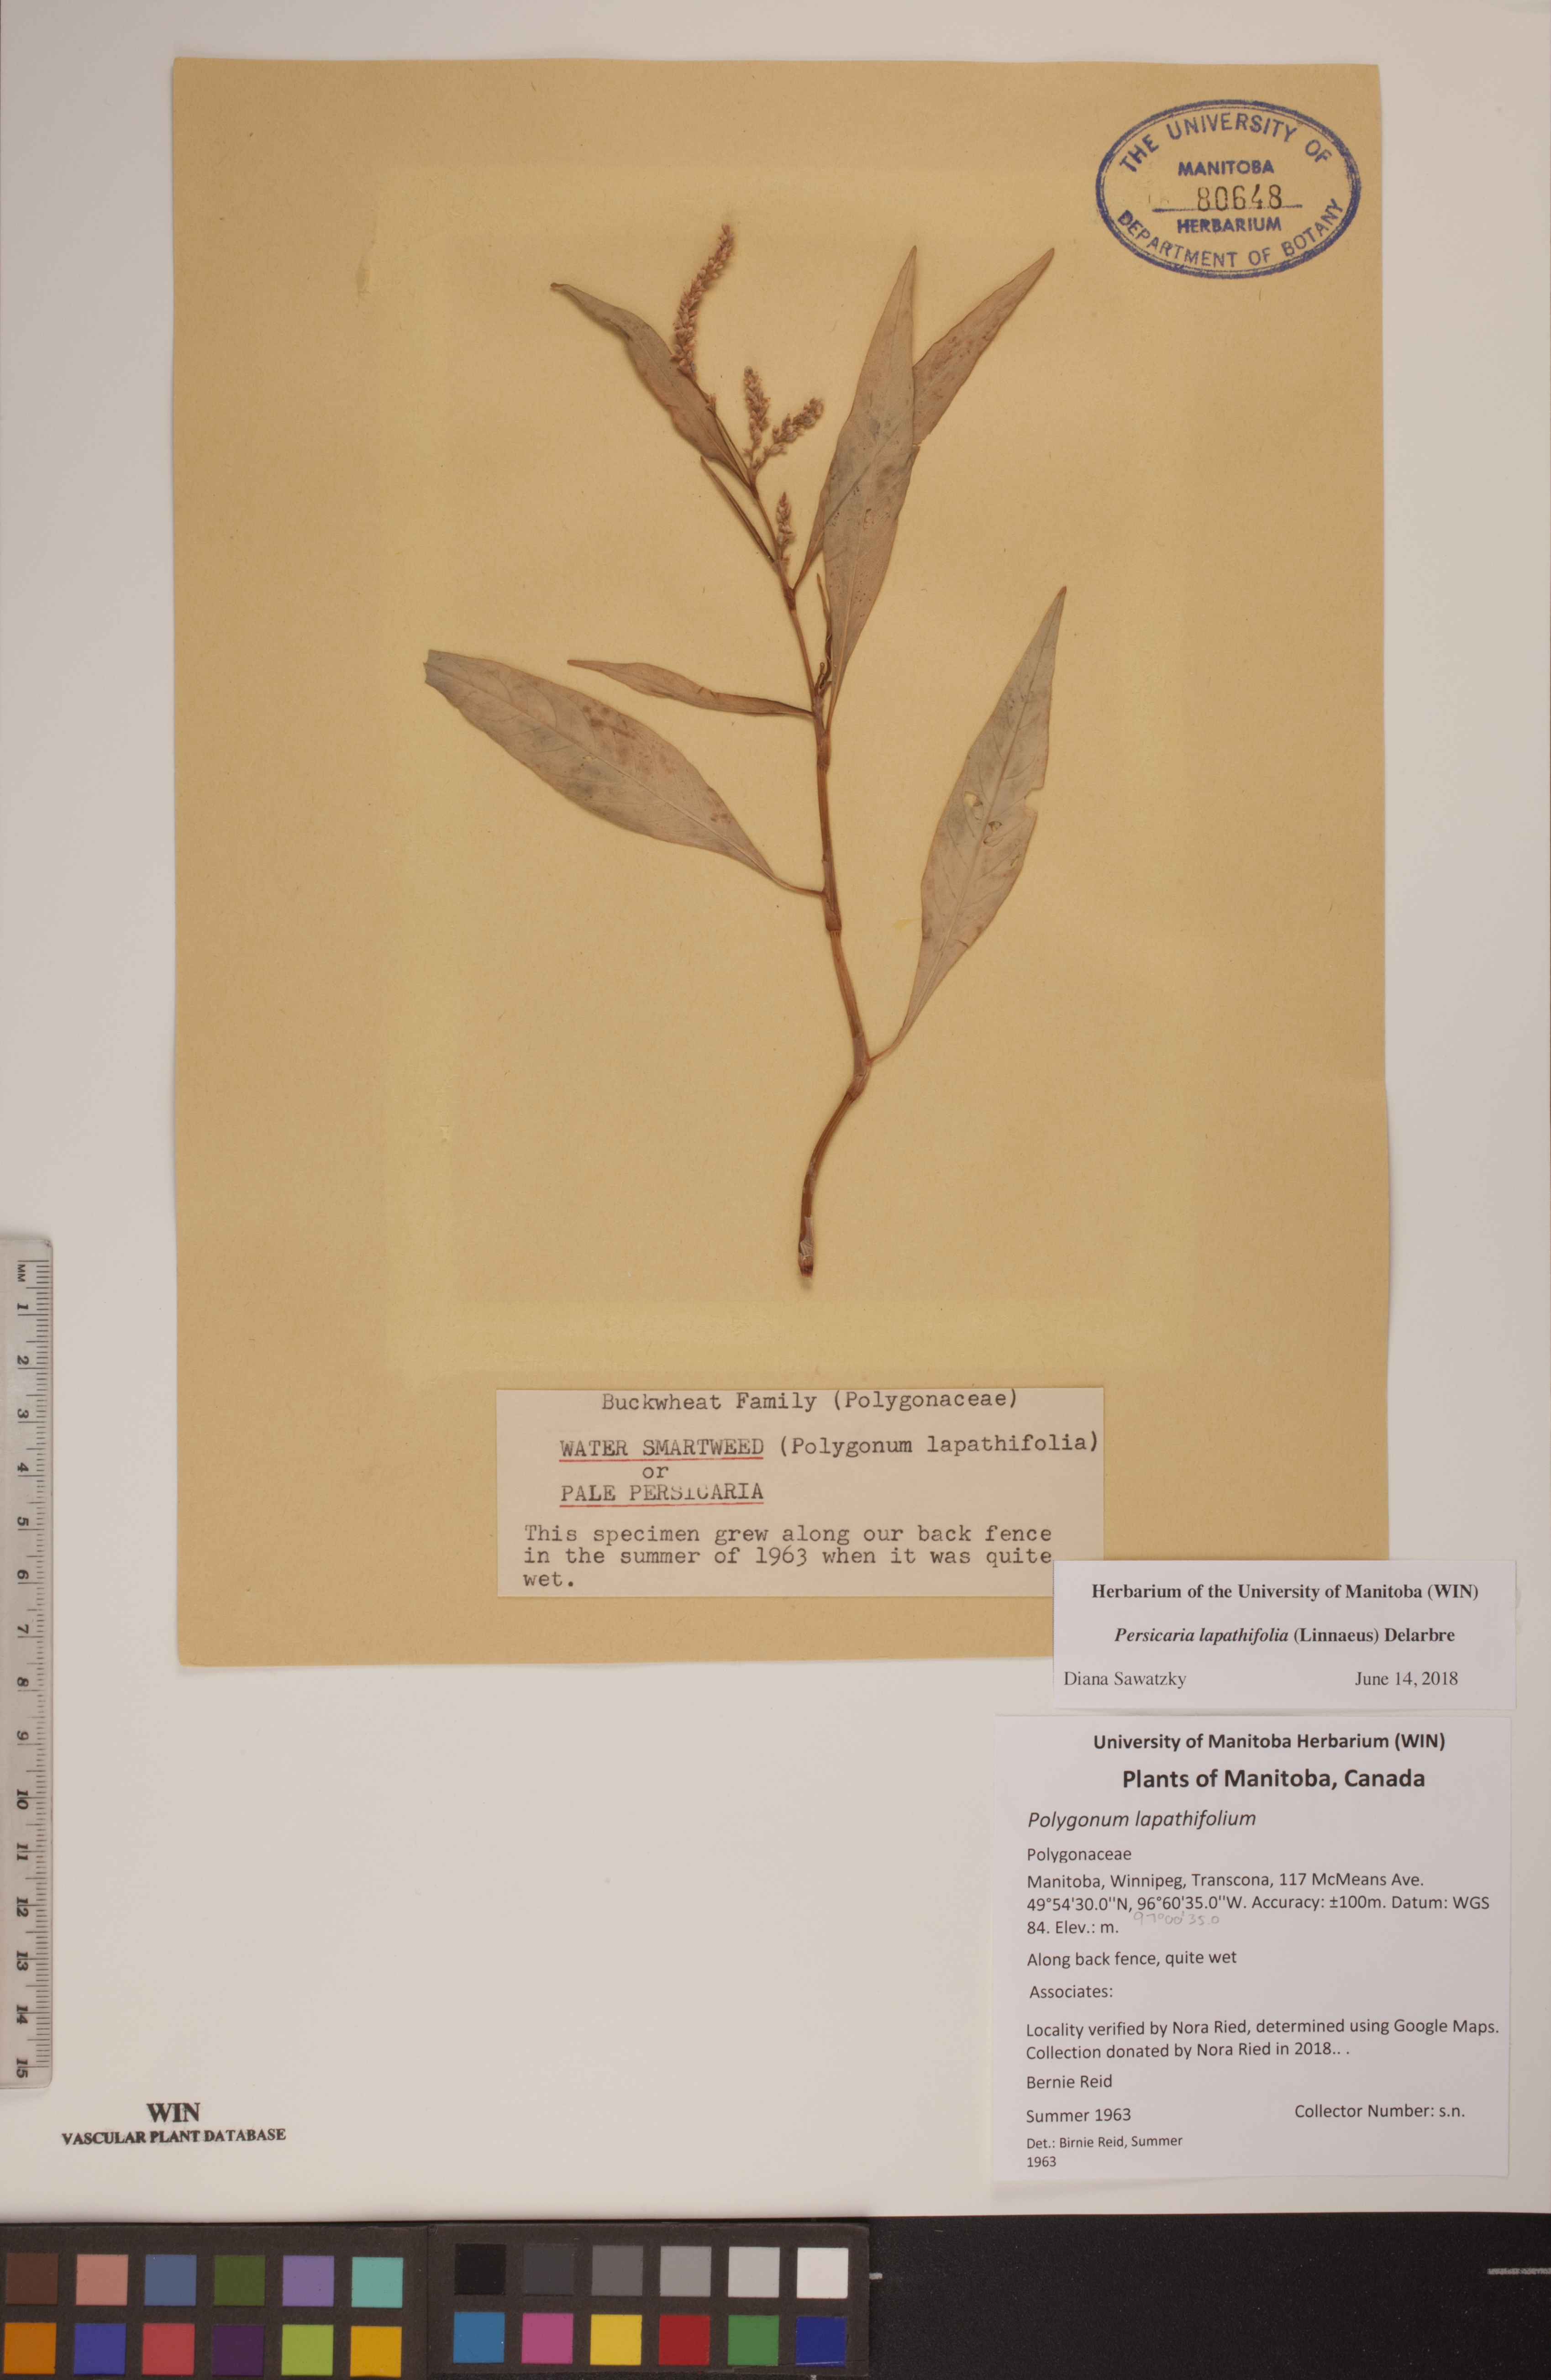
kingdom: Plantae
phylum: Tracheophyta
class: Magnoliopsida
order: Caryophyllales
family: Polygonaceae
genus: Persicaria
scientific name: Persicaria lapathifolia
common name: Curlytop knotweed
